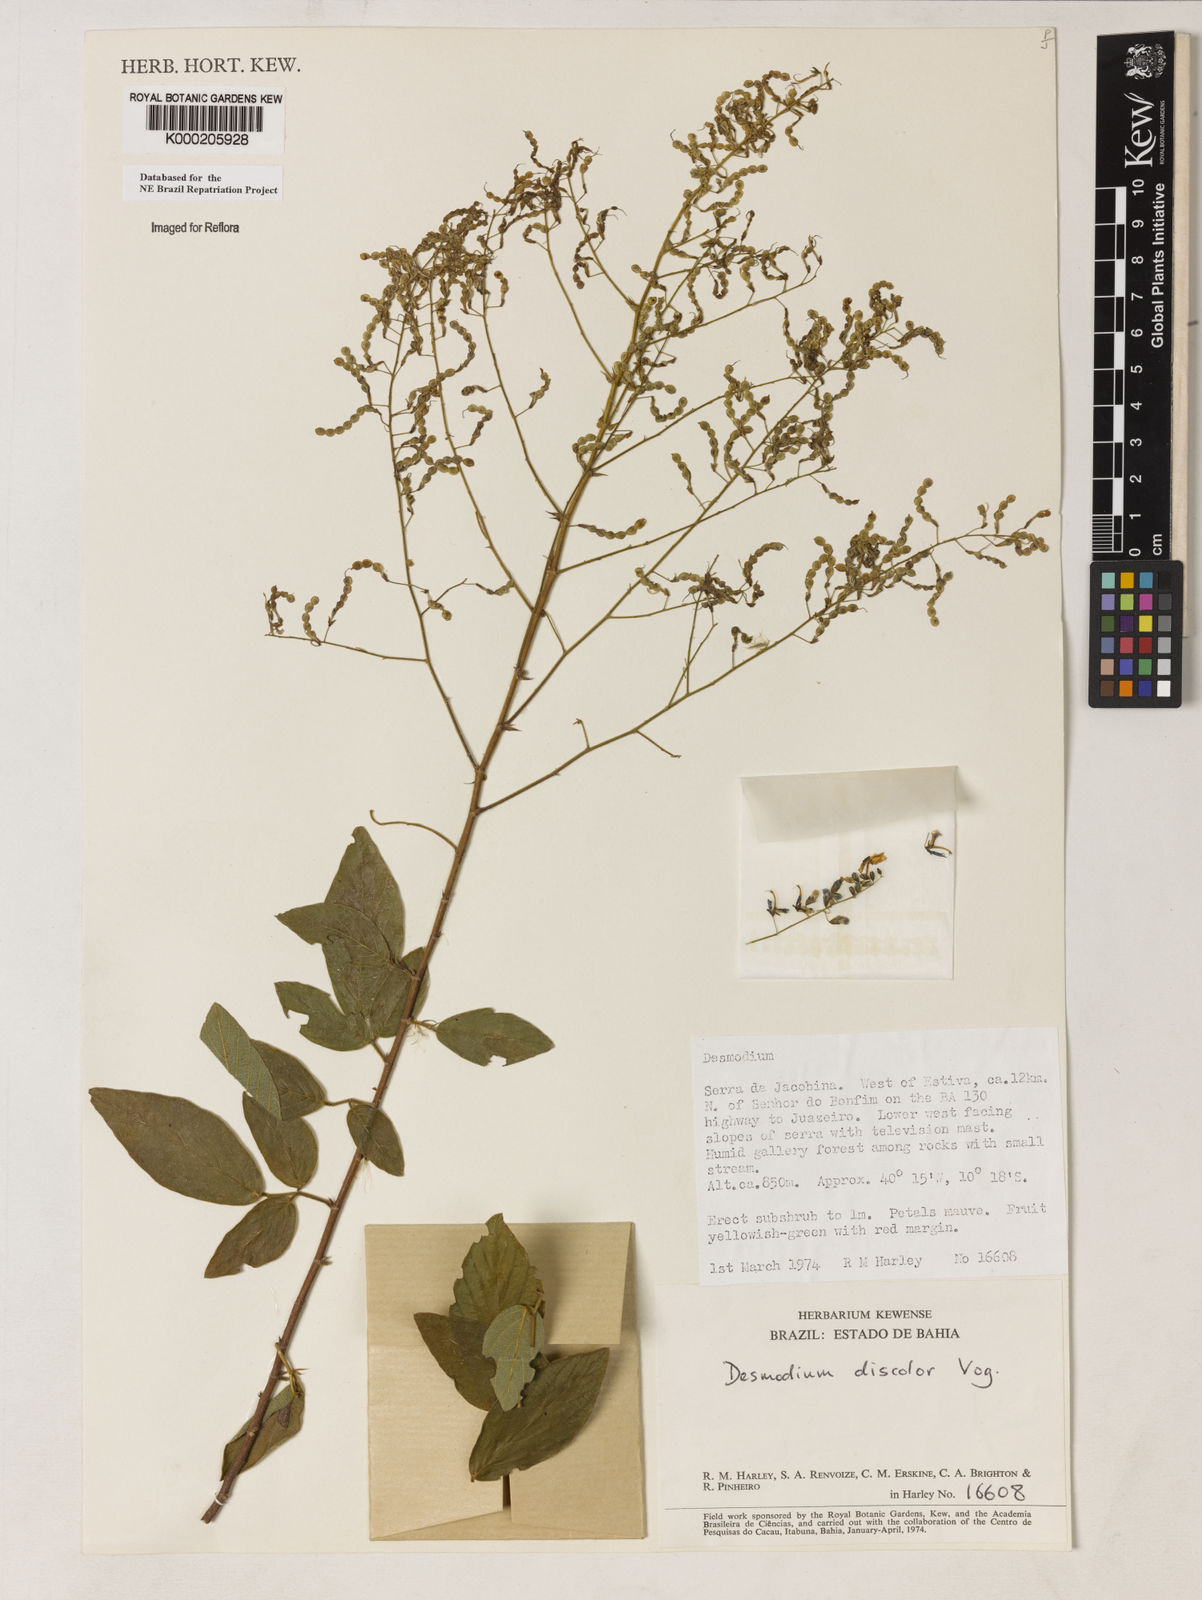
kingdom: Plantae
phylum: Tracheophyta
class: Magnoliopsida
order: Fabales
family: Fabaceae
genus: Desmodium
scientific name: Desmodium subsecundum
